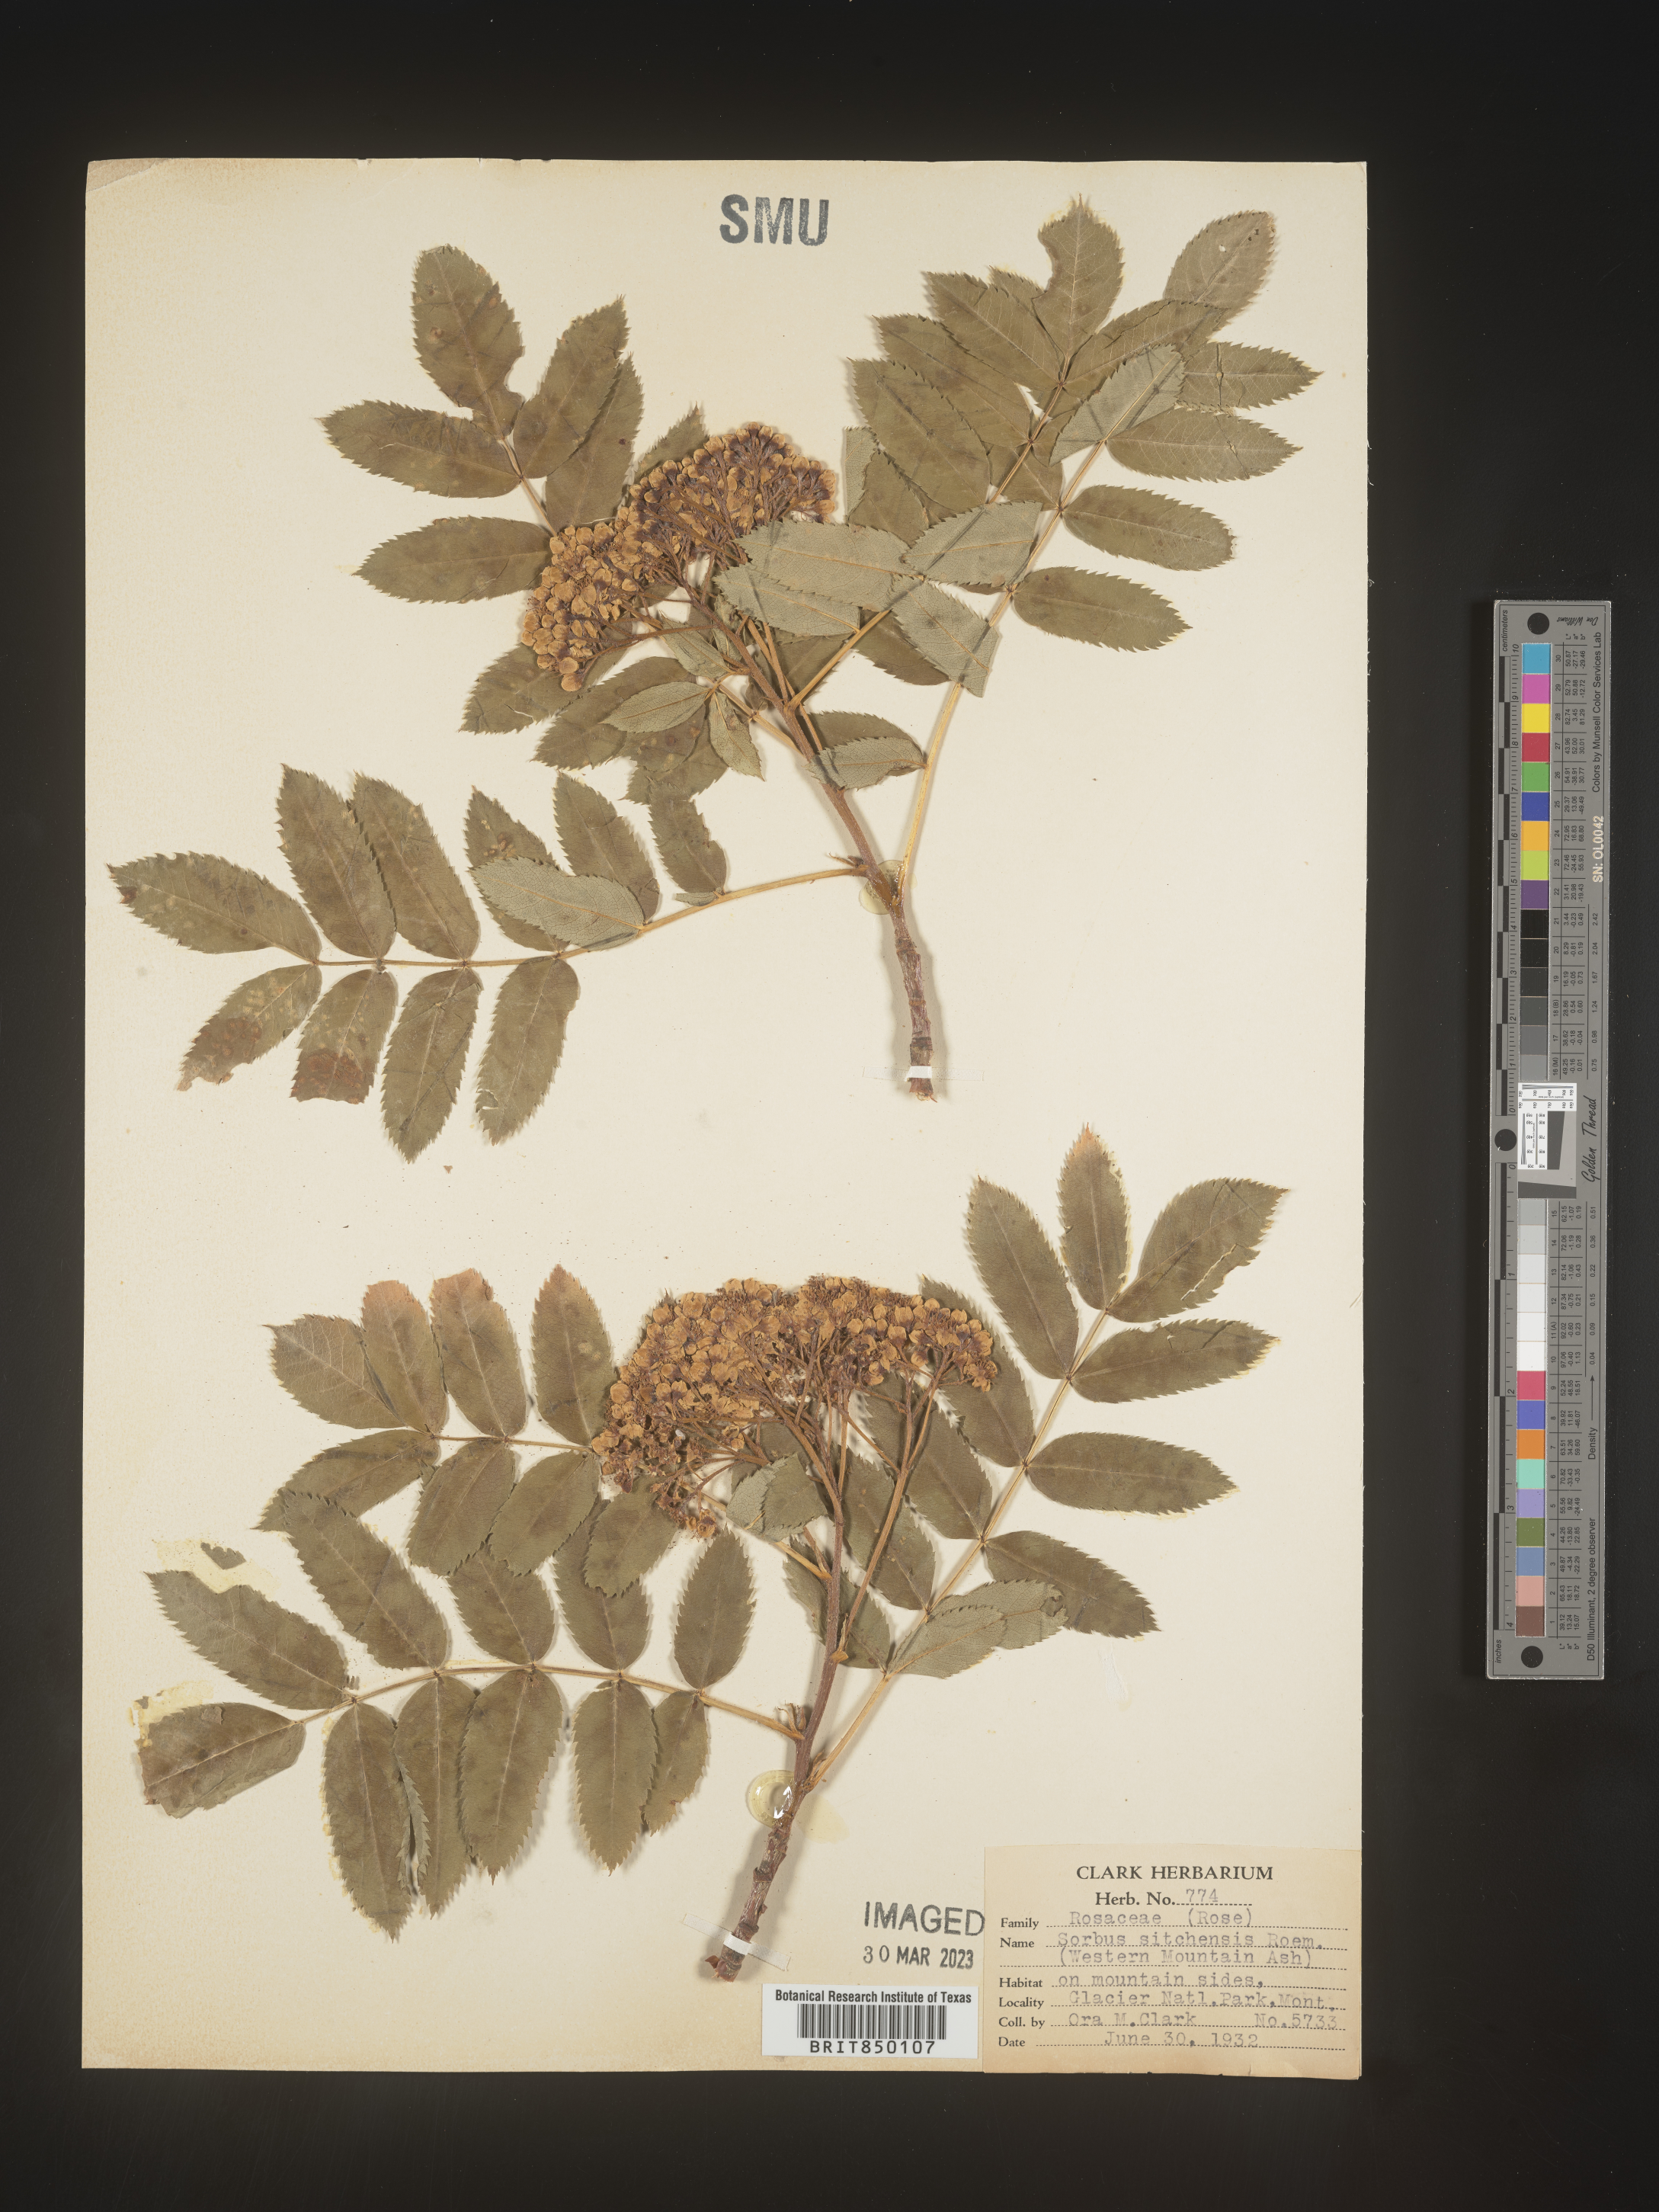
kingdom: Plantae
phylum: Tracheophyta
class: Magnoliopsida
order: Rosales
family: Rosaceae
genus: Sorbus
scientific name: Sorbus
